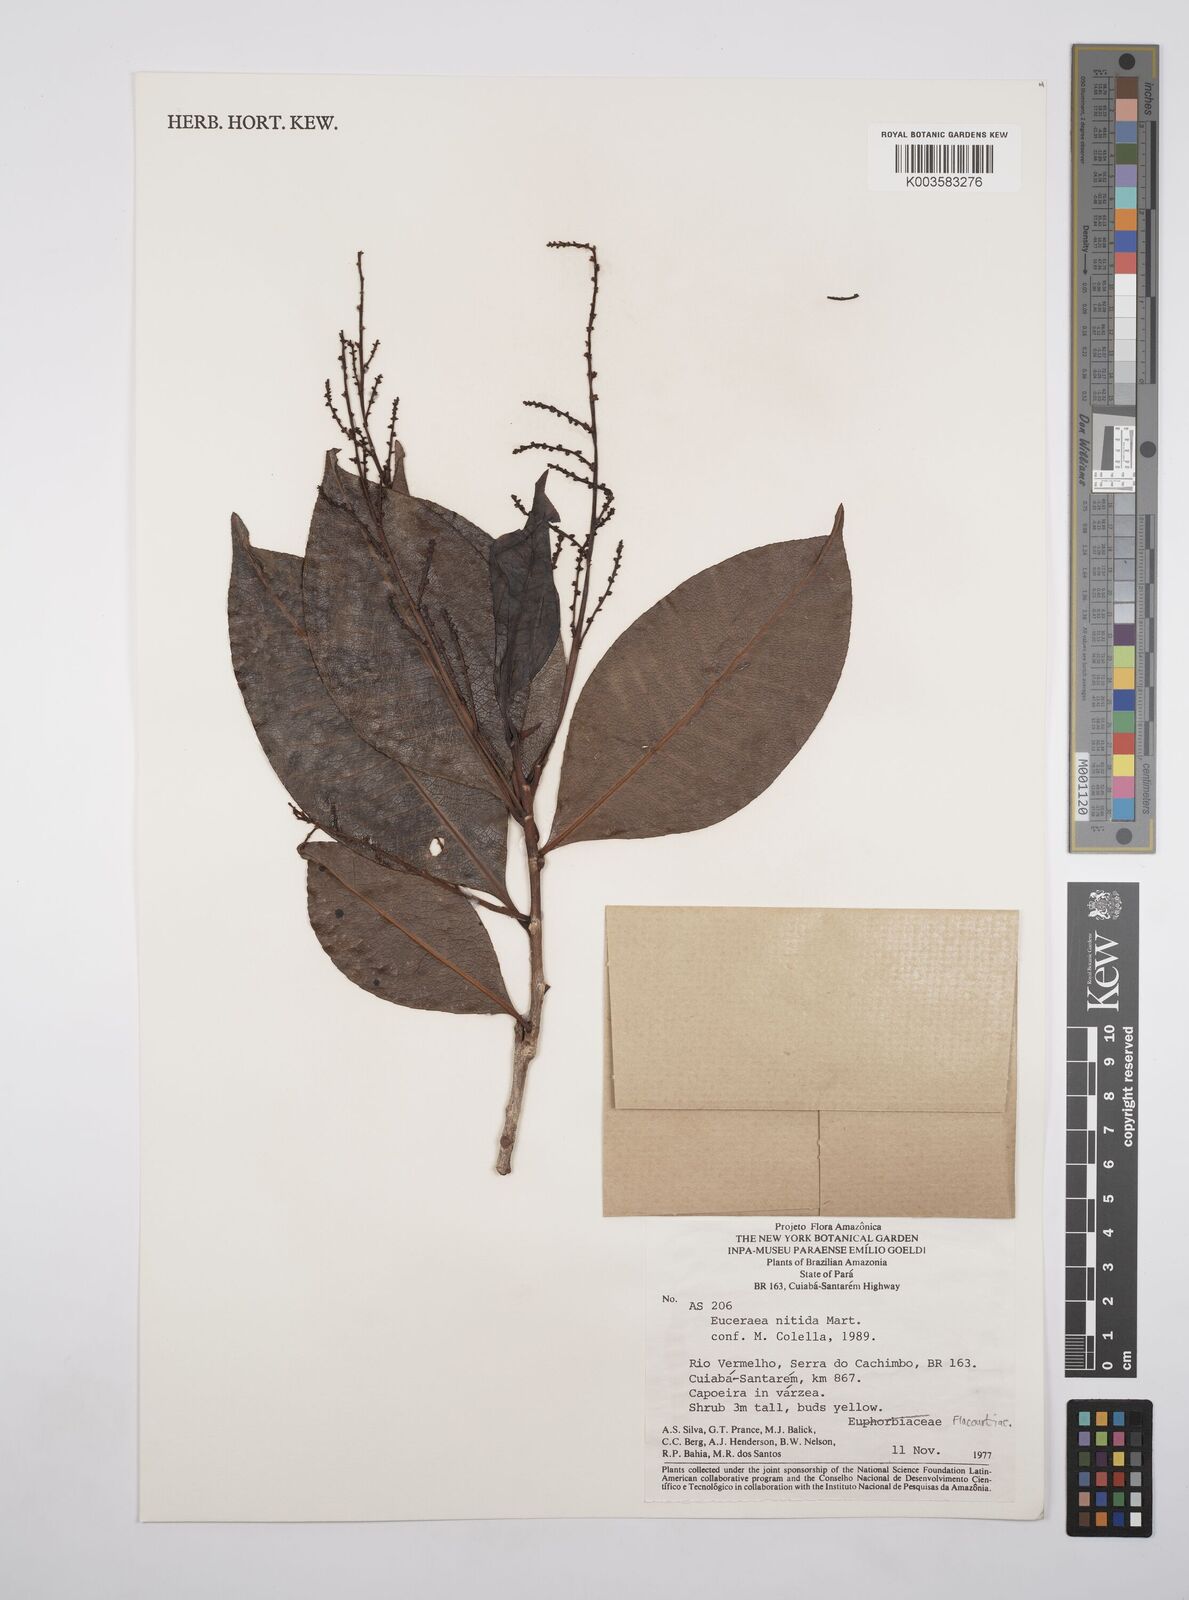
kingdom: Plantae
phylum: Tracheophyta
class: Magnoliopsida
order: Malpighiales
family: Salicaceae
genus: Casearia
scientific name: Casearia euceraea
